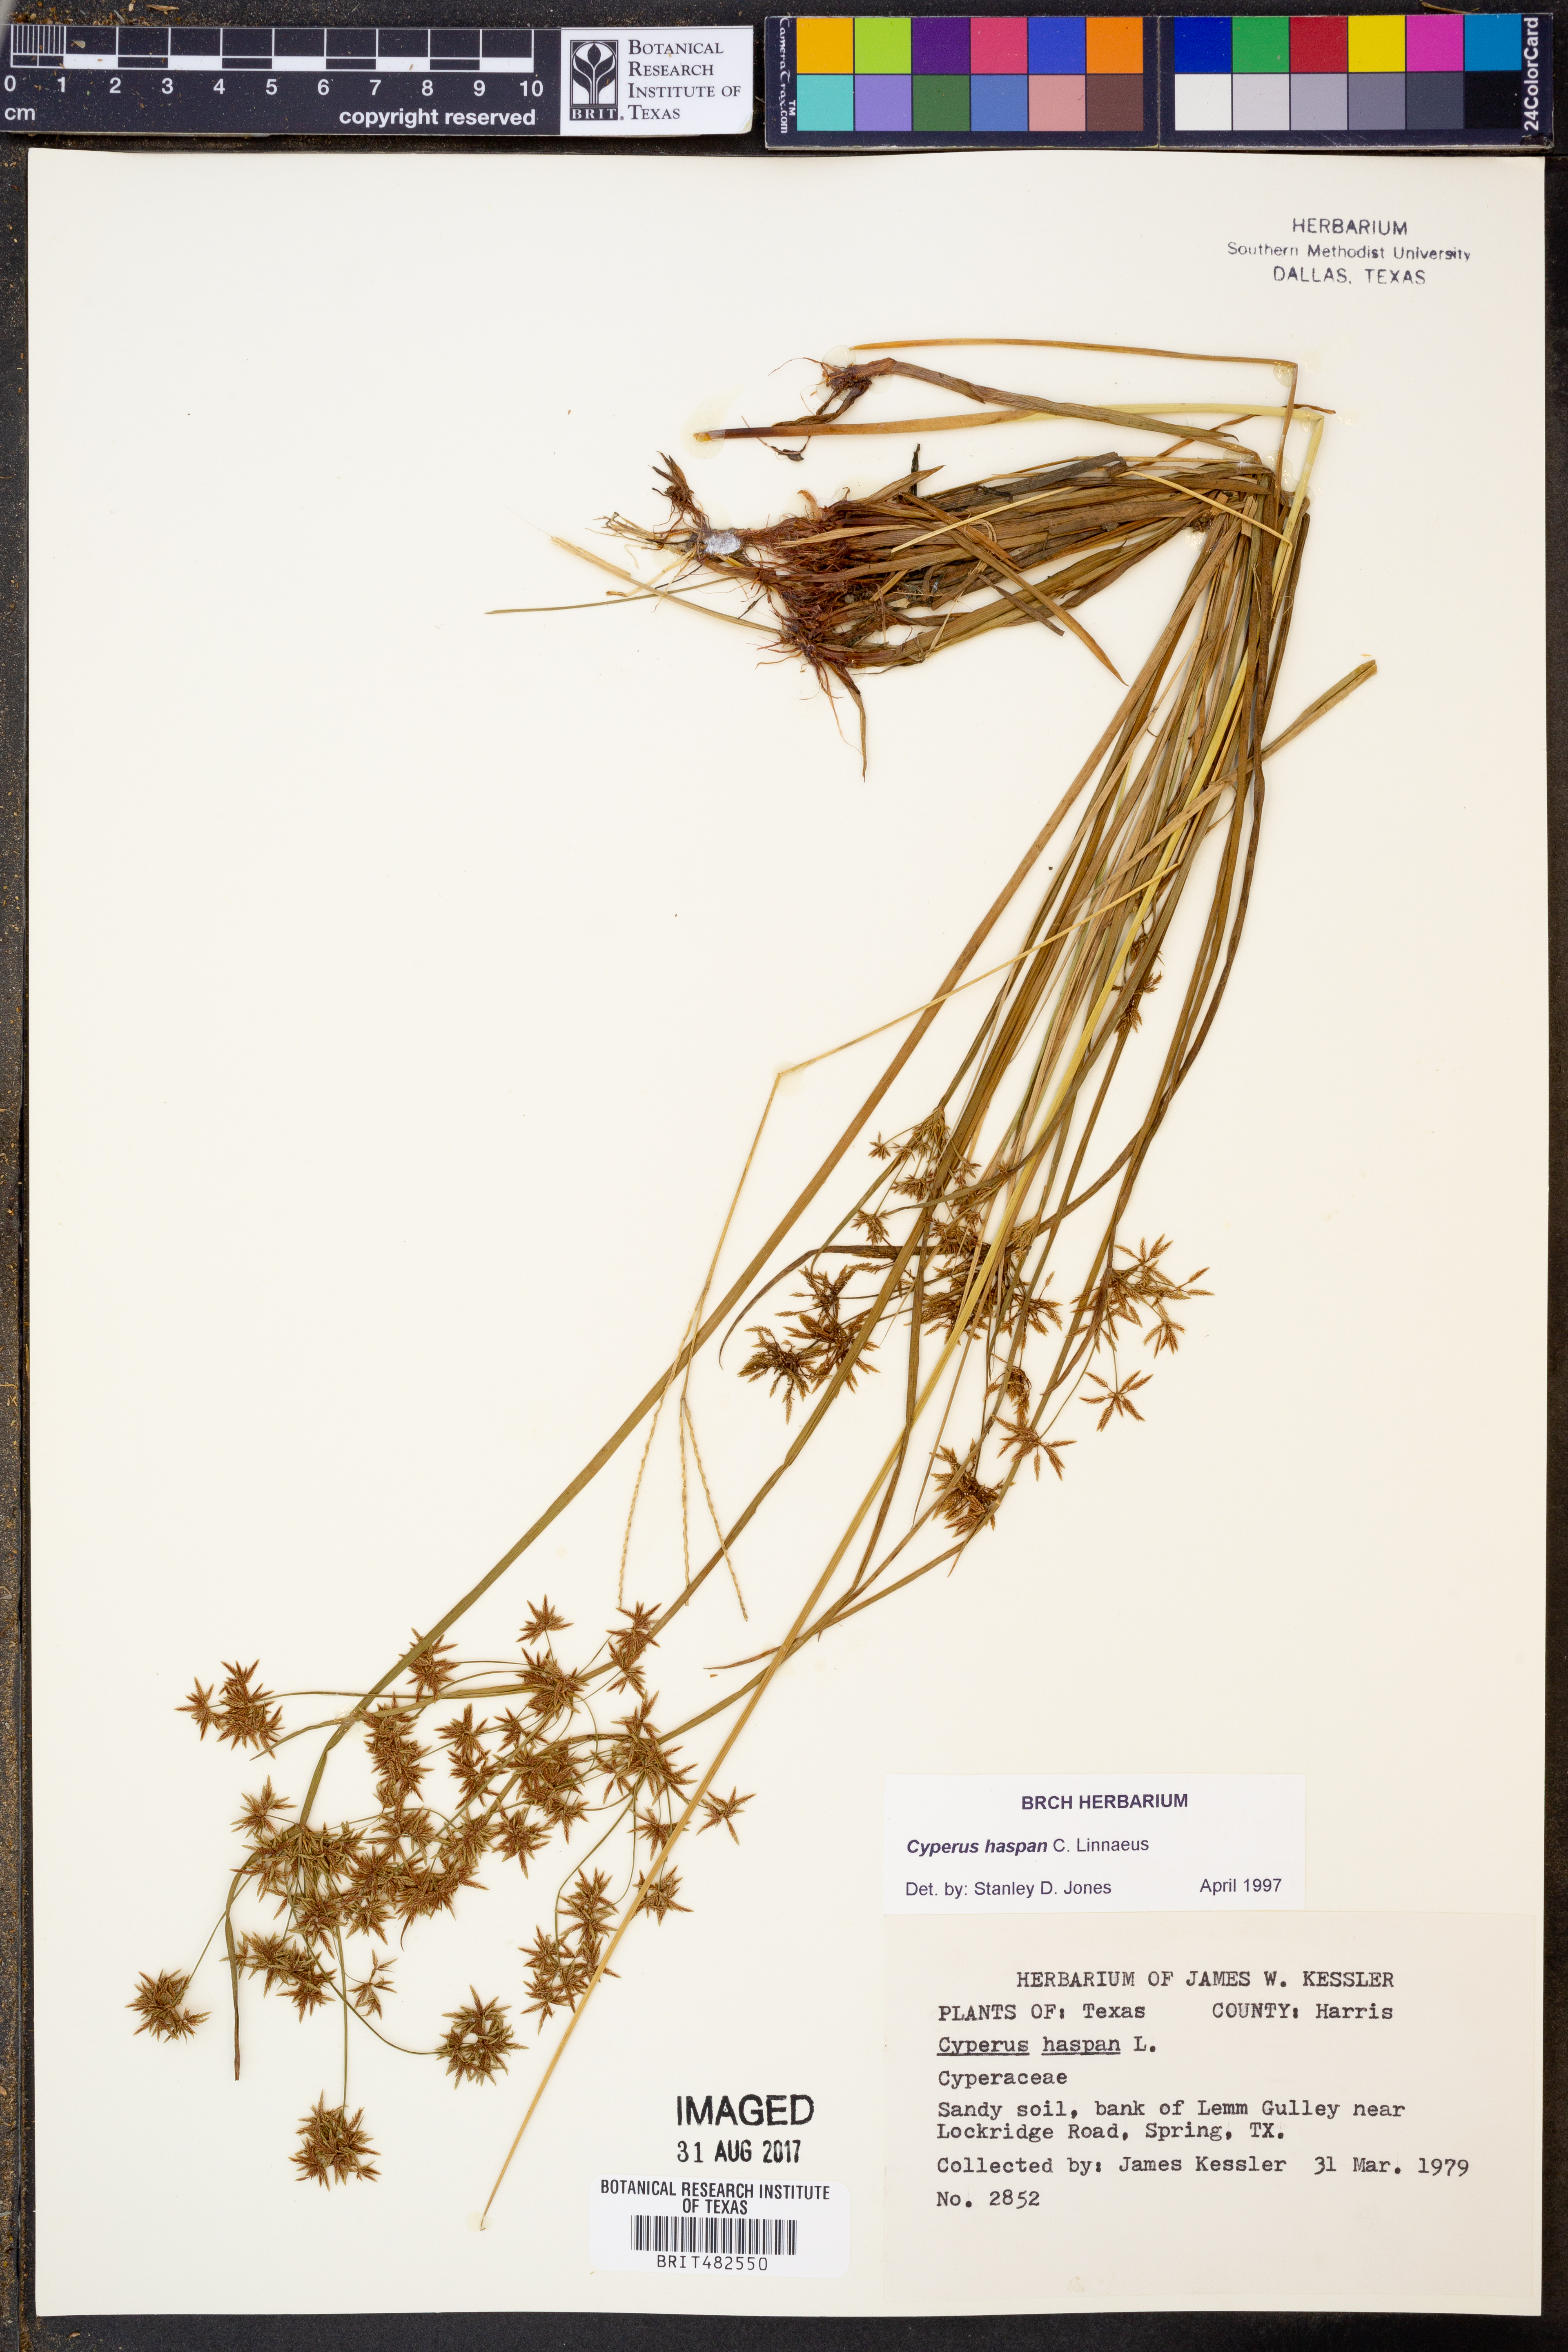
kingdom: Plantae
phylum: Tracheophyta
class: Liliopsida
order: Poales
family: Cyperaceae
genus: Cyperus
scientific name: Cyperus haspan
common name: Haspan flatsedge
